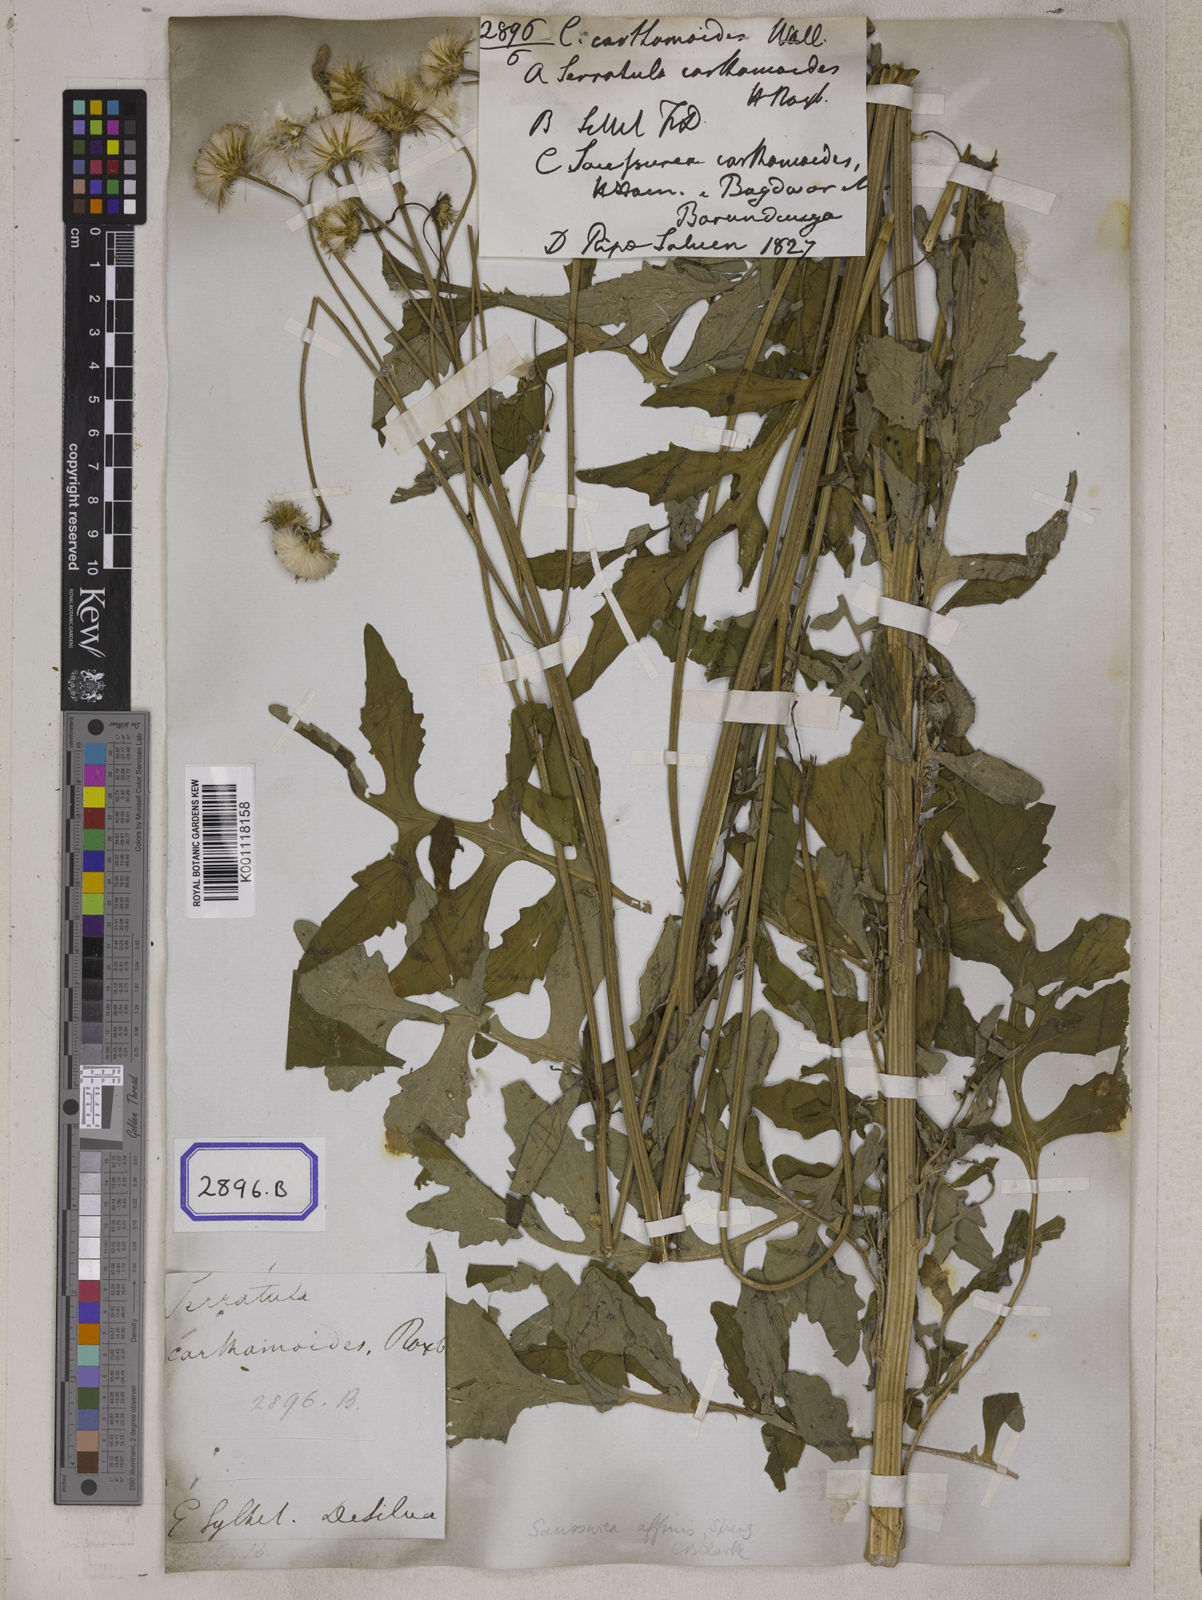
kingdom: Plantae
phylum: Tracheophyta
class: Magnoliopsida
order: Asterales
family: Asteraceae
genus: Saussurea
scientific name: Saussurea lyrata
